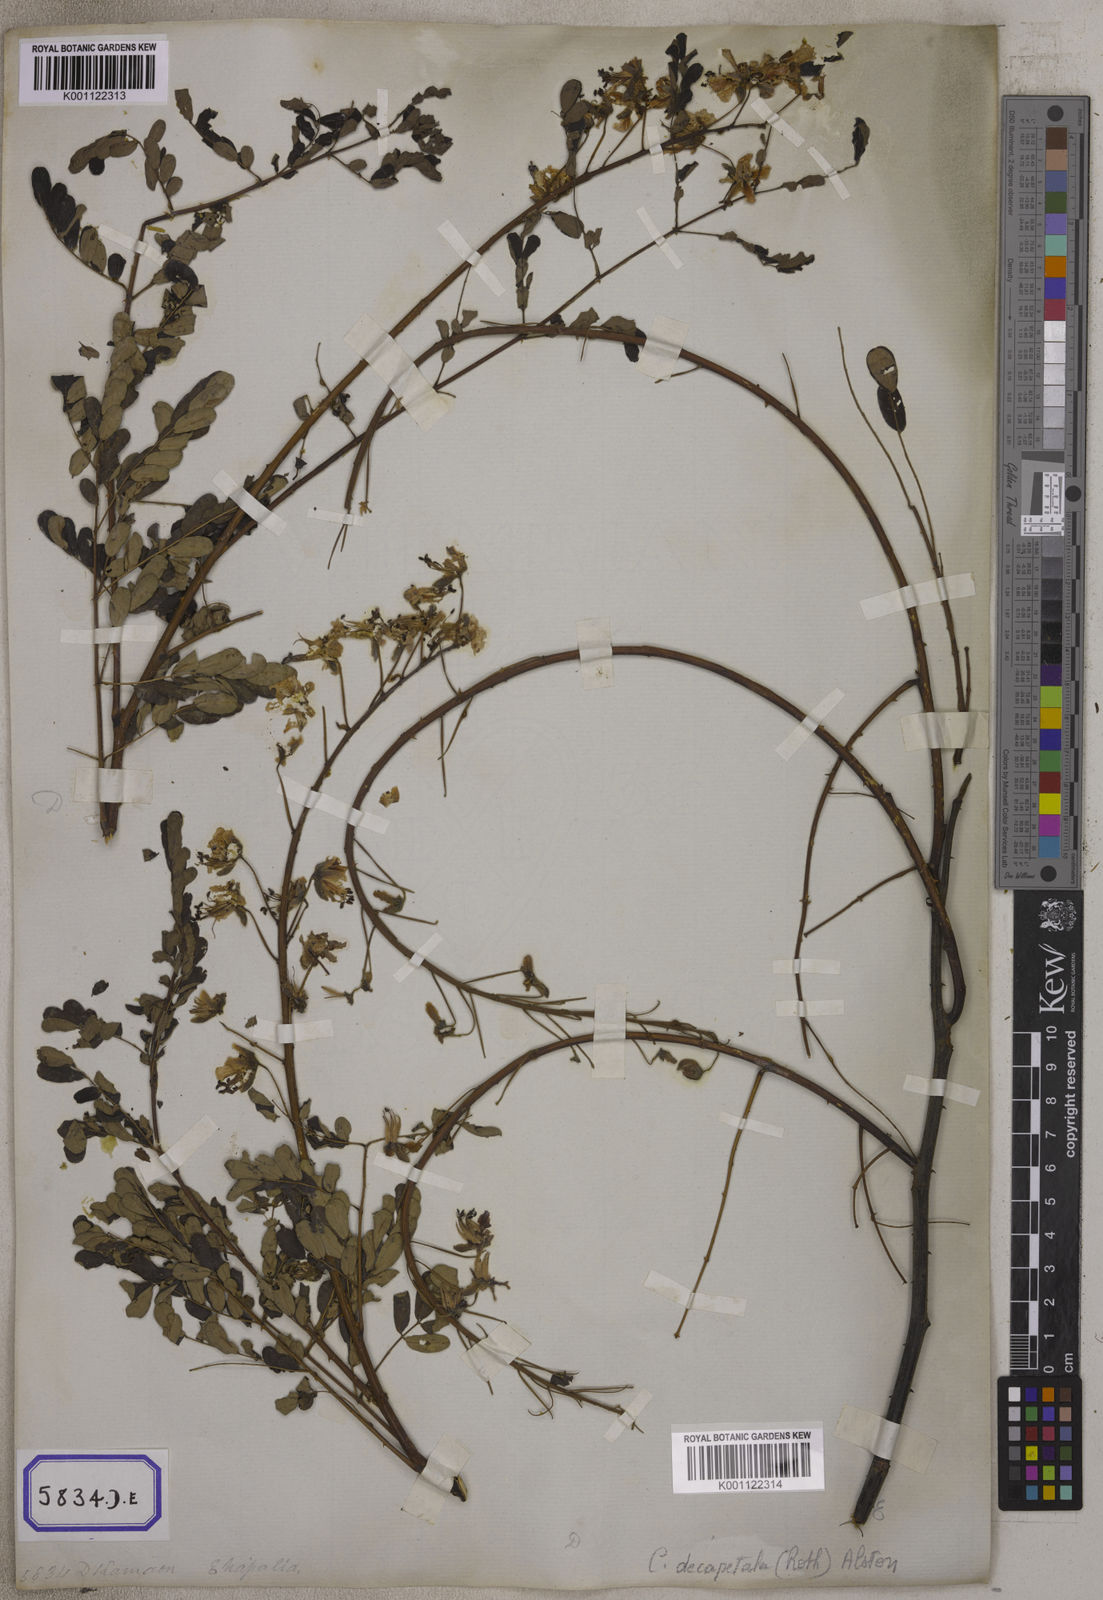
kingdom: Plantae
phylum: Tracheophyta
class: Magnoliopsida
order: Fabales
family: Fabaceae
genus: Caesalpinia
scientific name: Caesalpinia
